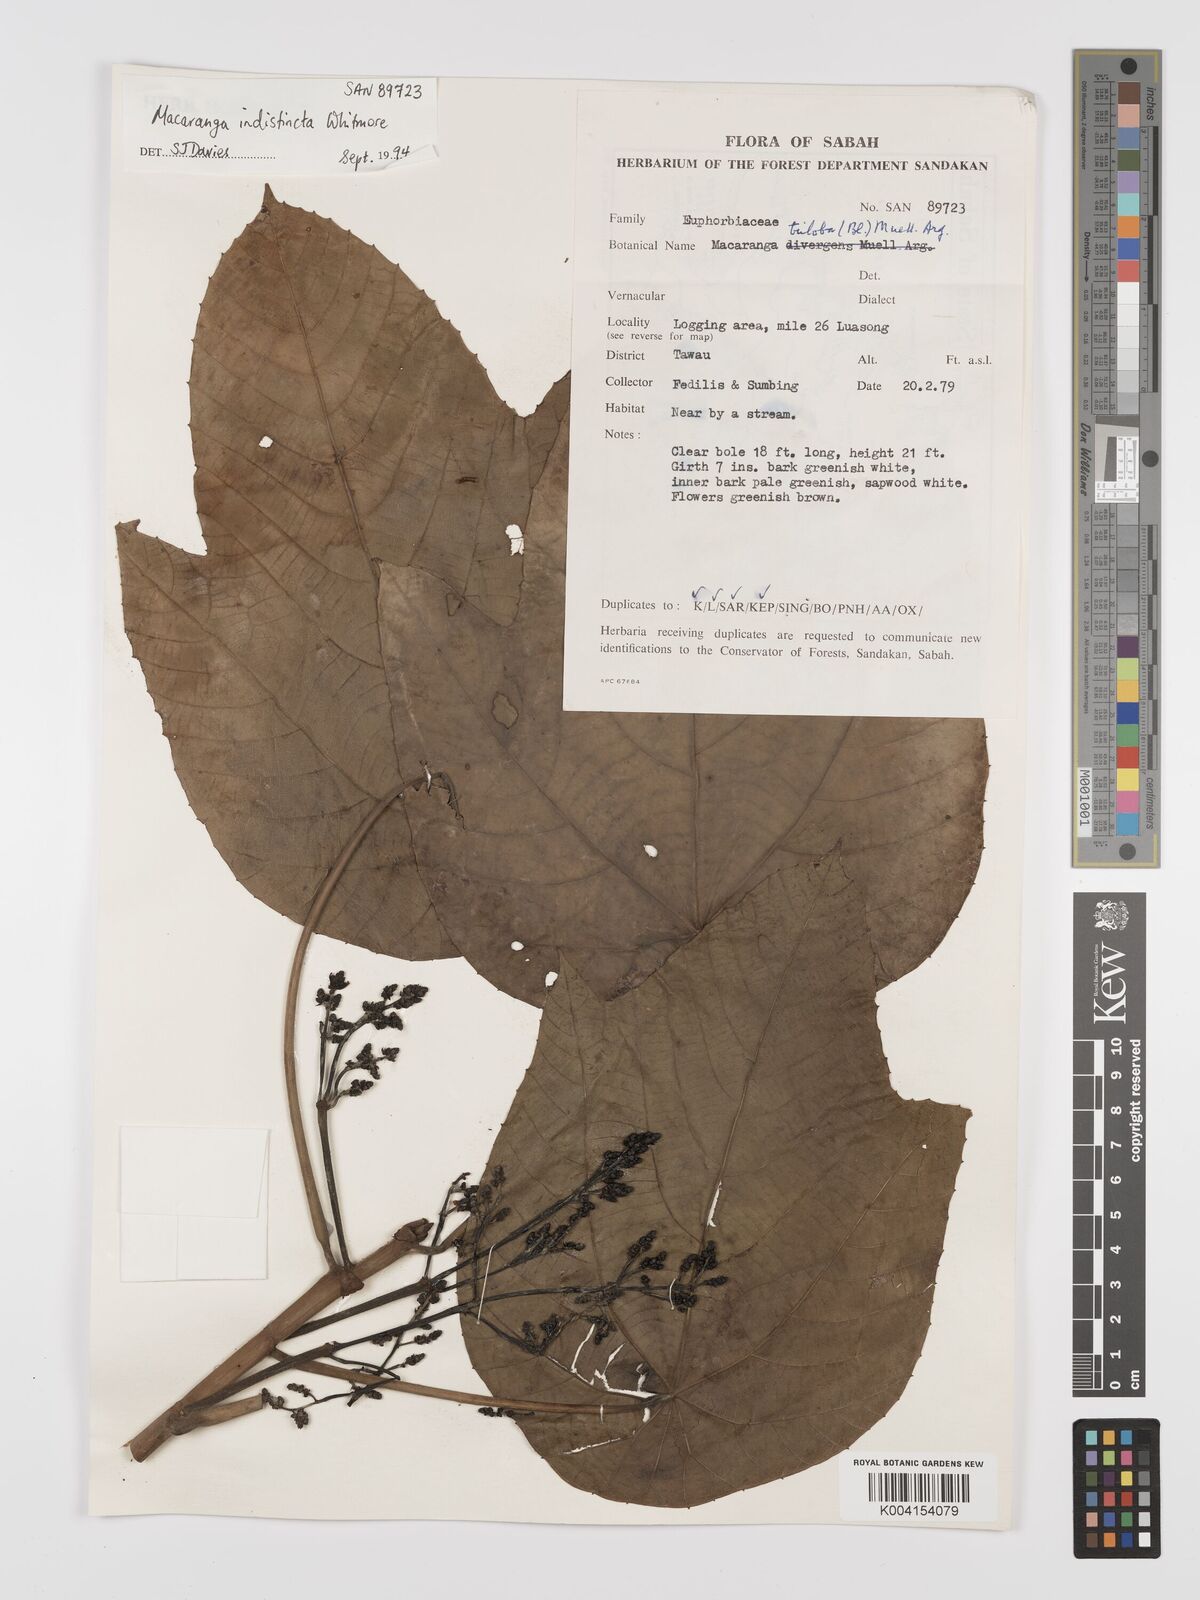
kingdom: Plantae
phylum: Tracheophyta
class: Magnoliopsida
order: Malpighiales
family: Euphorbiaceae
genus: Macaranga
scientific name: Macaranga indistincta
